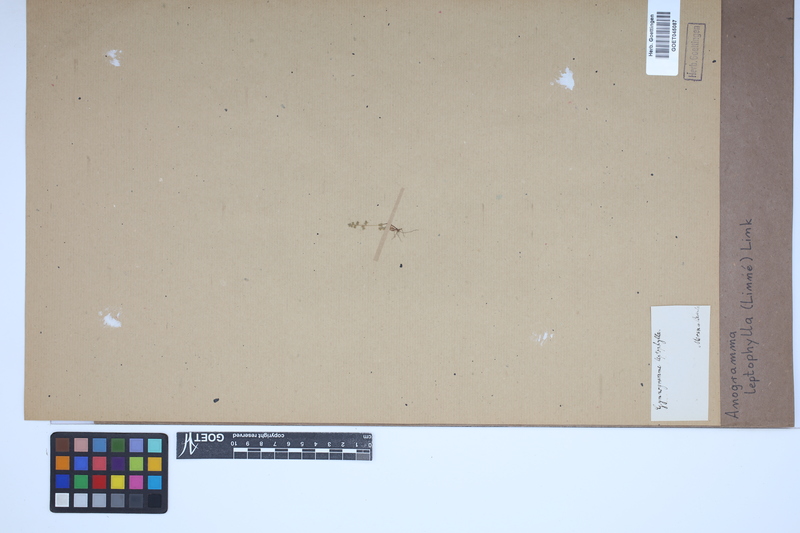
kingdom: Plantae
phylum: Tracheophyta
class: Polypodiopsida
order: Polypodiales
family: Pteridaceae
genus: Anogramma
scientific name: Anogramma leptophylla
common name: Jersey fern
